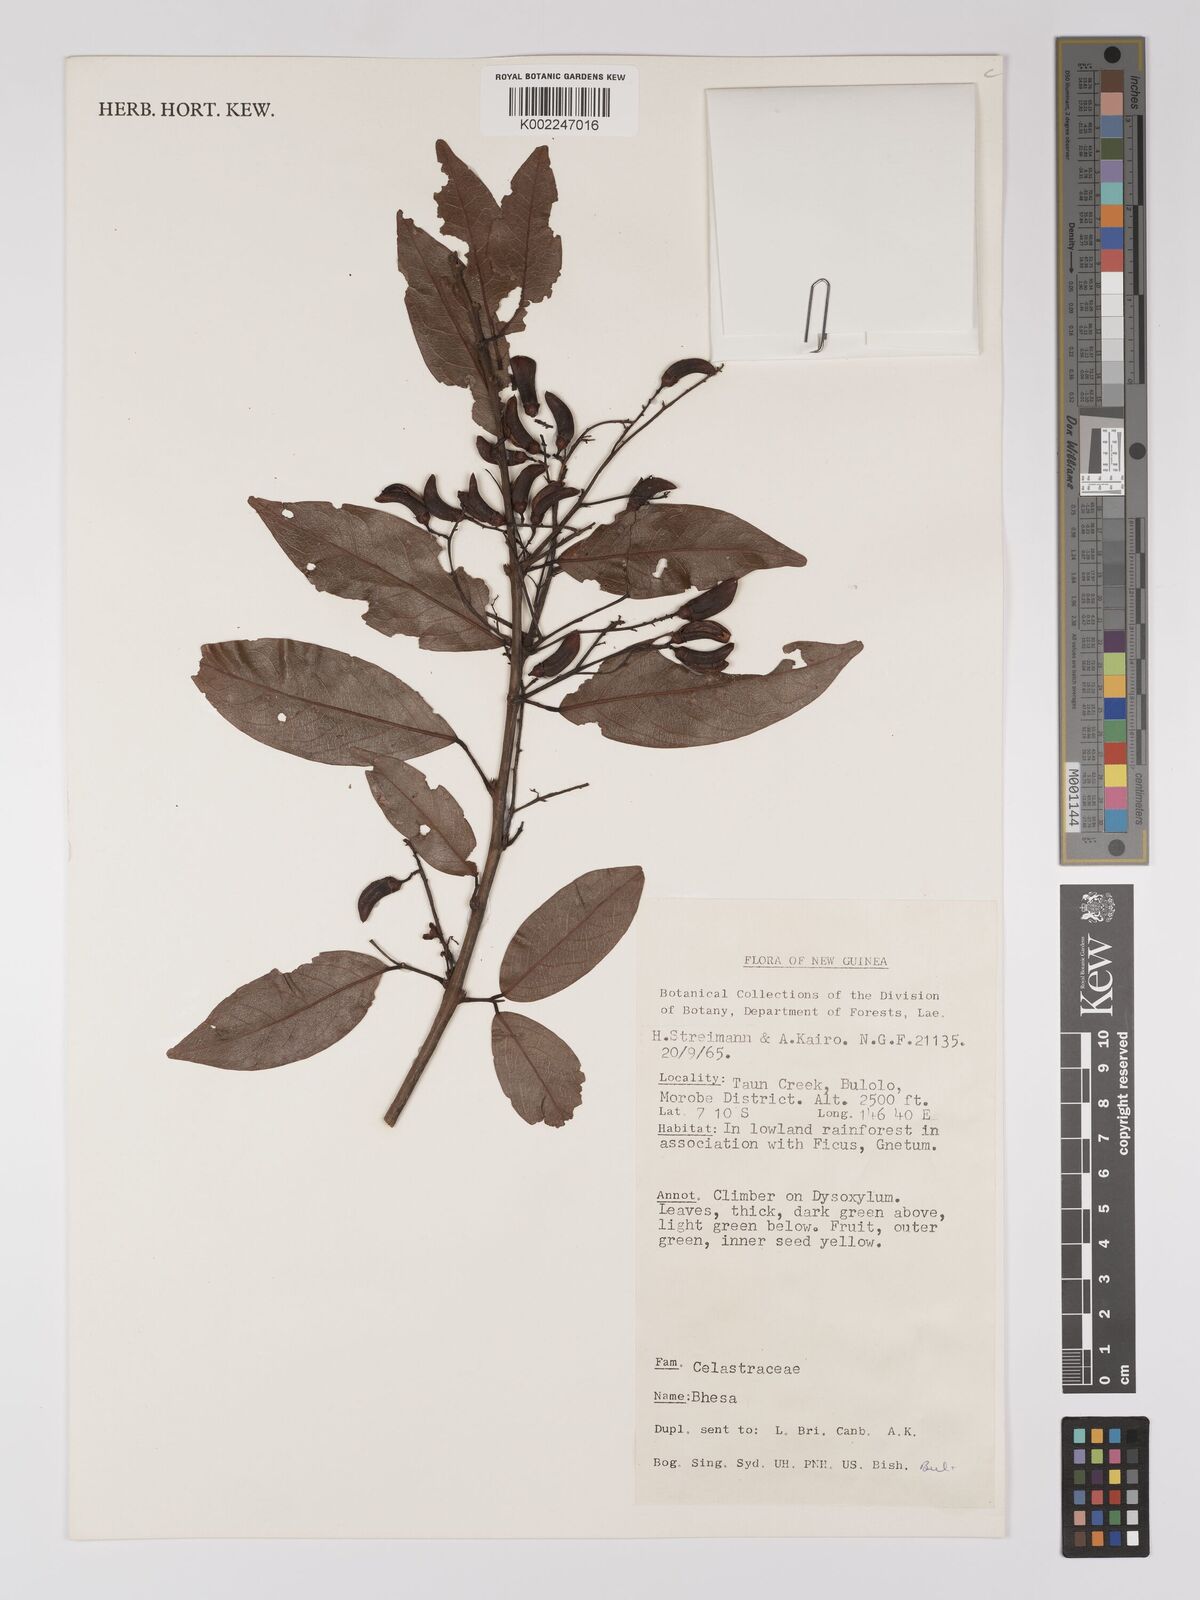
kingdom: Plantae
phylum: Tracheophyta
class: Magnoliopsida
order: Malpighiales
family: Centroplacaceae
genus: Bhesa
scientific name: Bhesa
